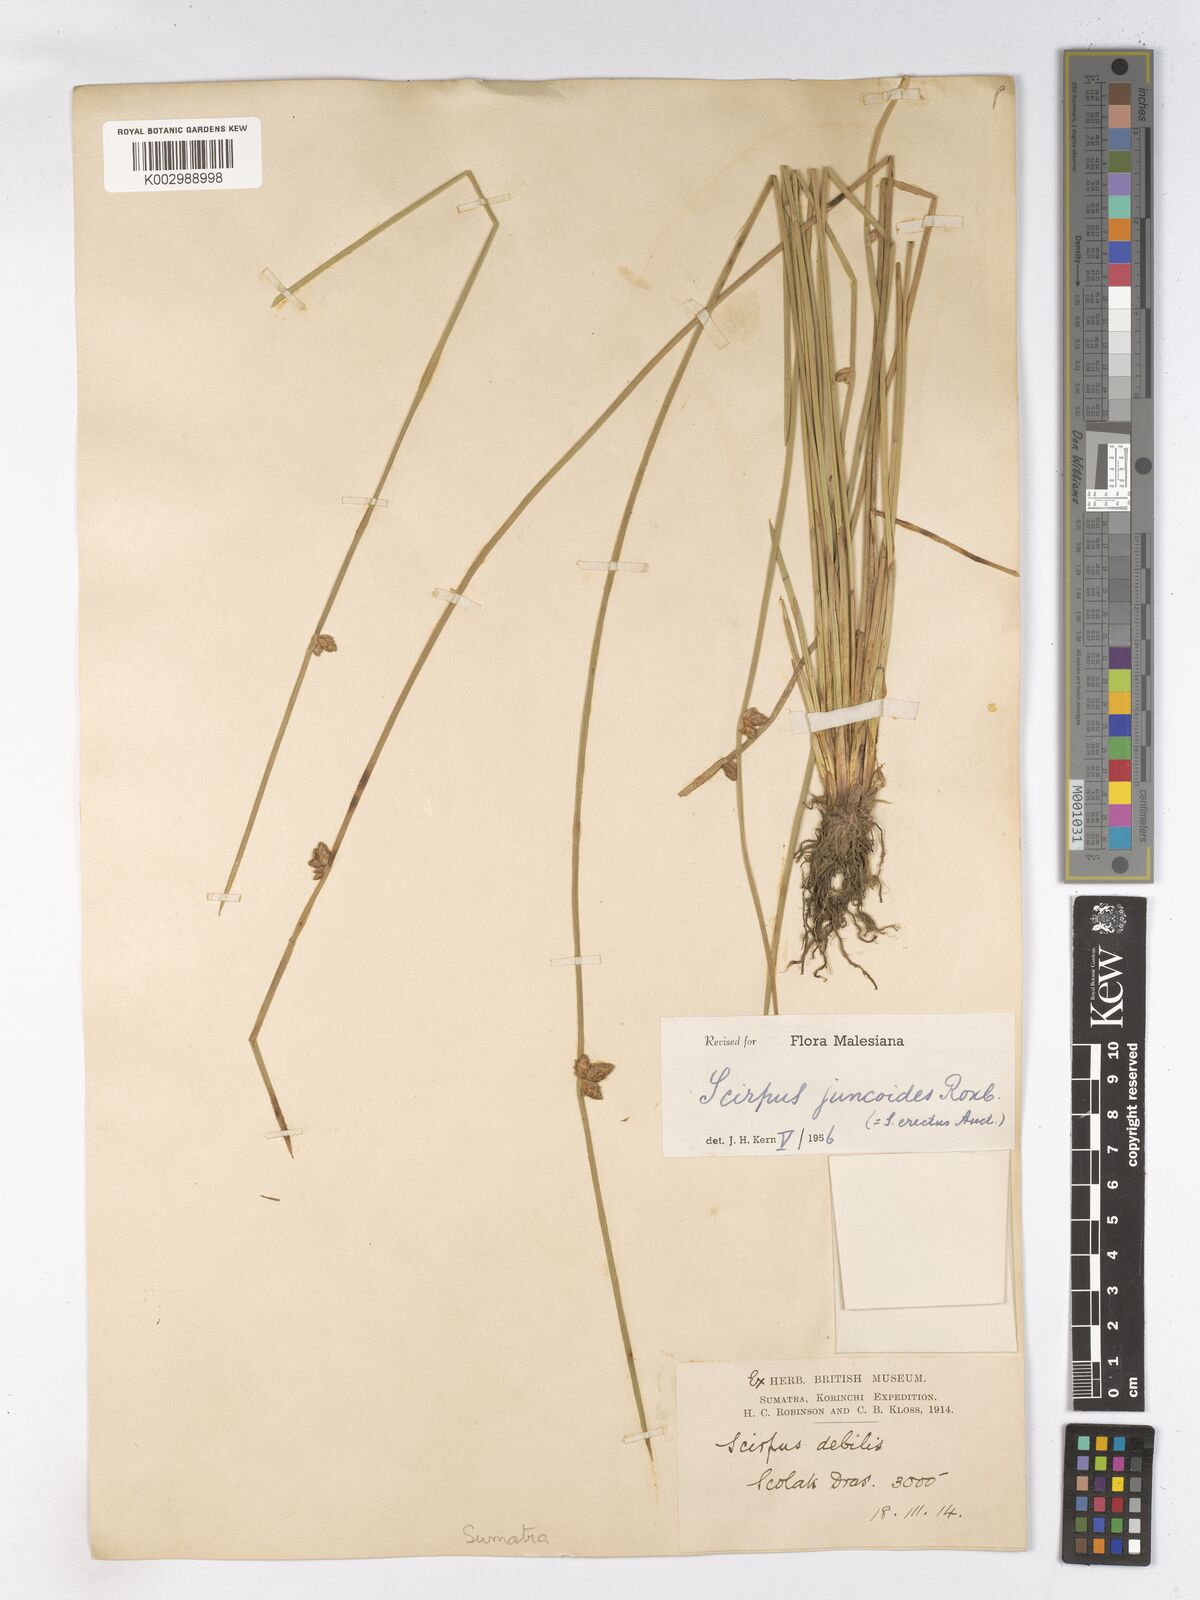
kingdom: Plantae
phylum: Tracheophyta
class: Liliopsida
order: Poales
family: Cyperaceae
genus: Schoenoplectiella
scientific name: Schoenoplectiella juncoides
